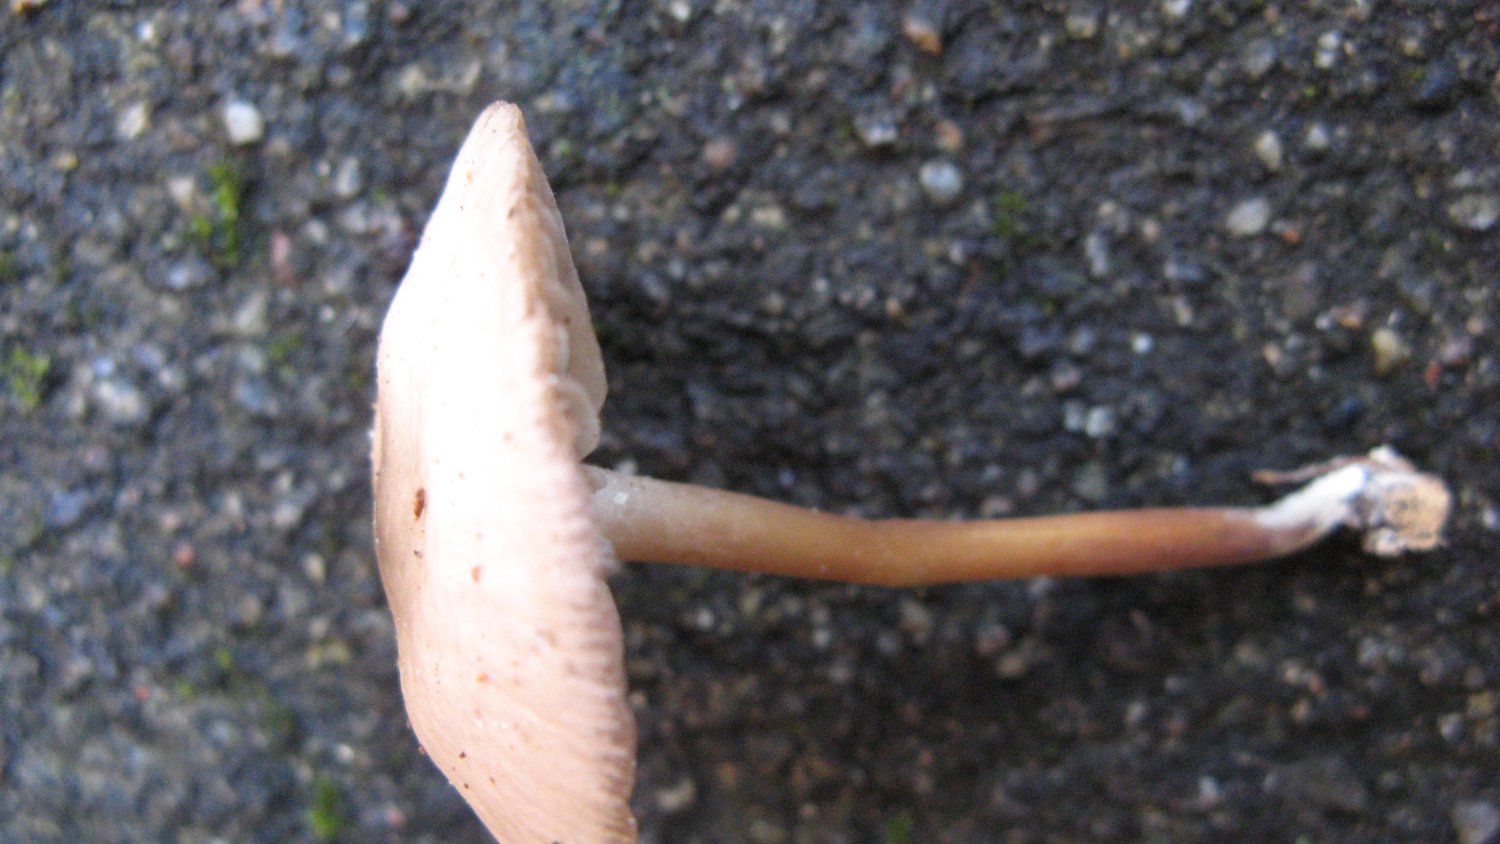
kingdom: Fungi
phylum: Basidiomycota
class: Agaricomycetes
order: Agaricales
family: Marasmiaceae
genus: Marasmius
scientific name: Marasmius wynneae
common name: hvælvet bruskhat
